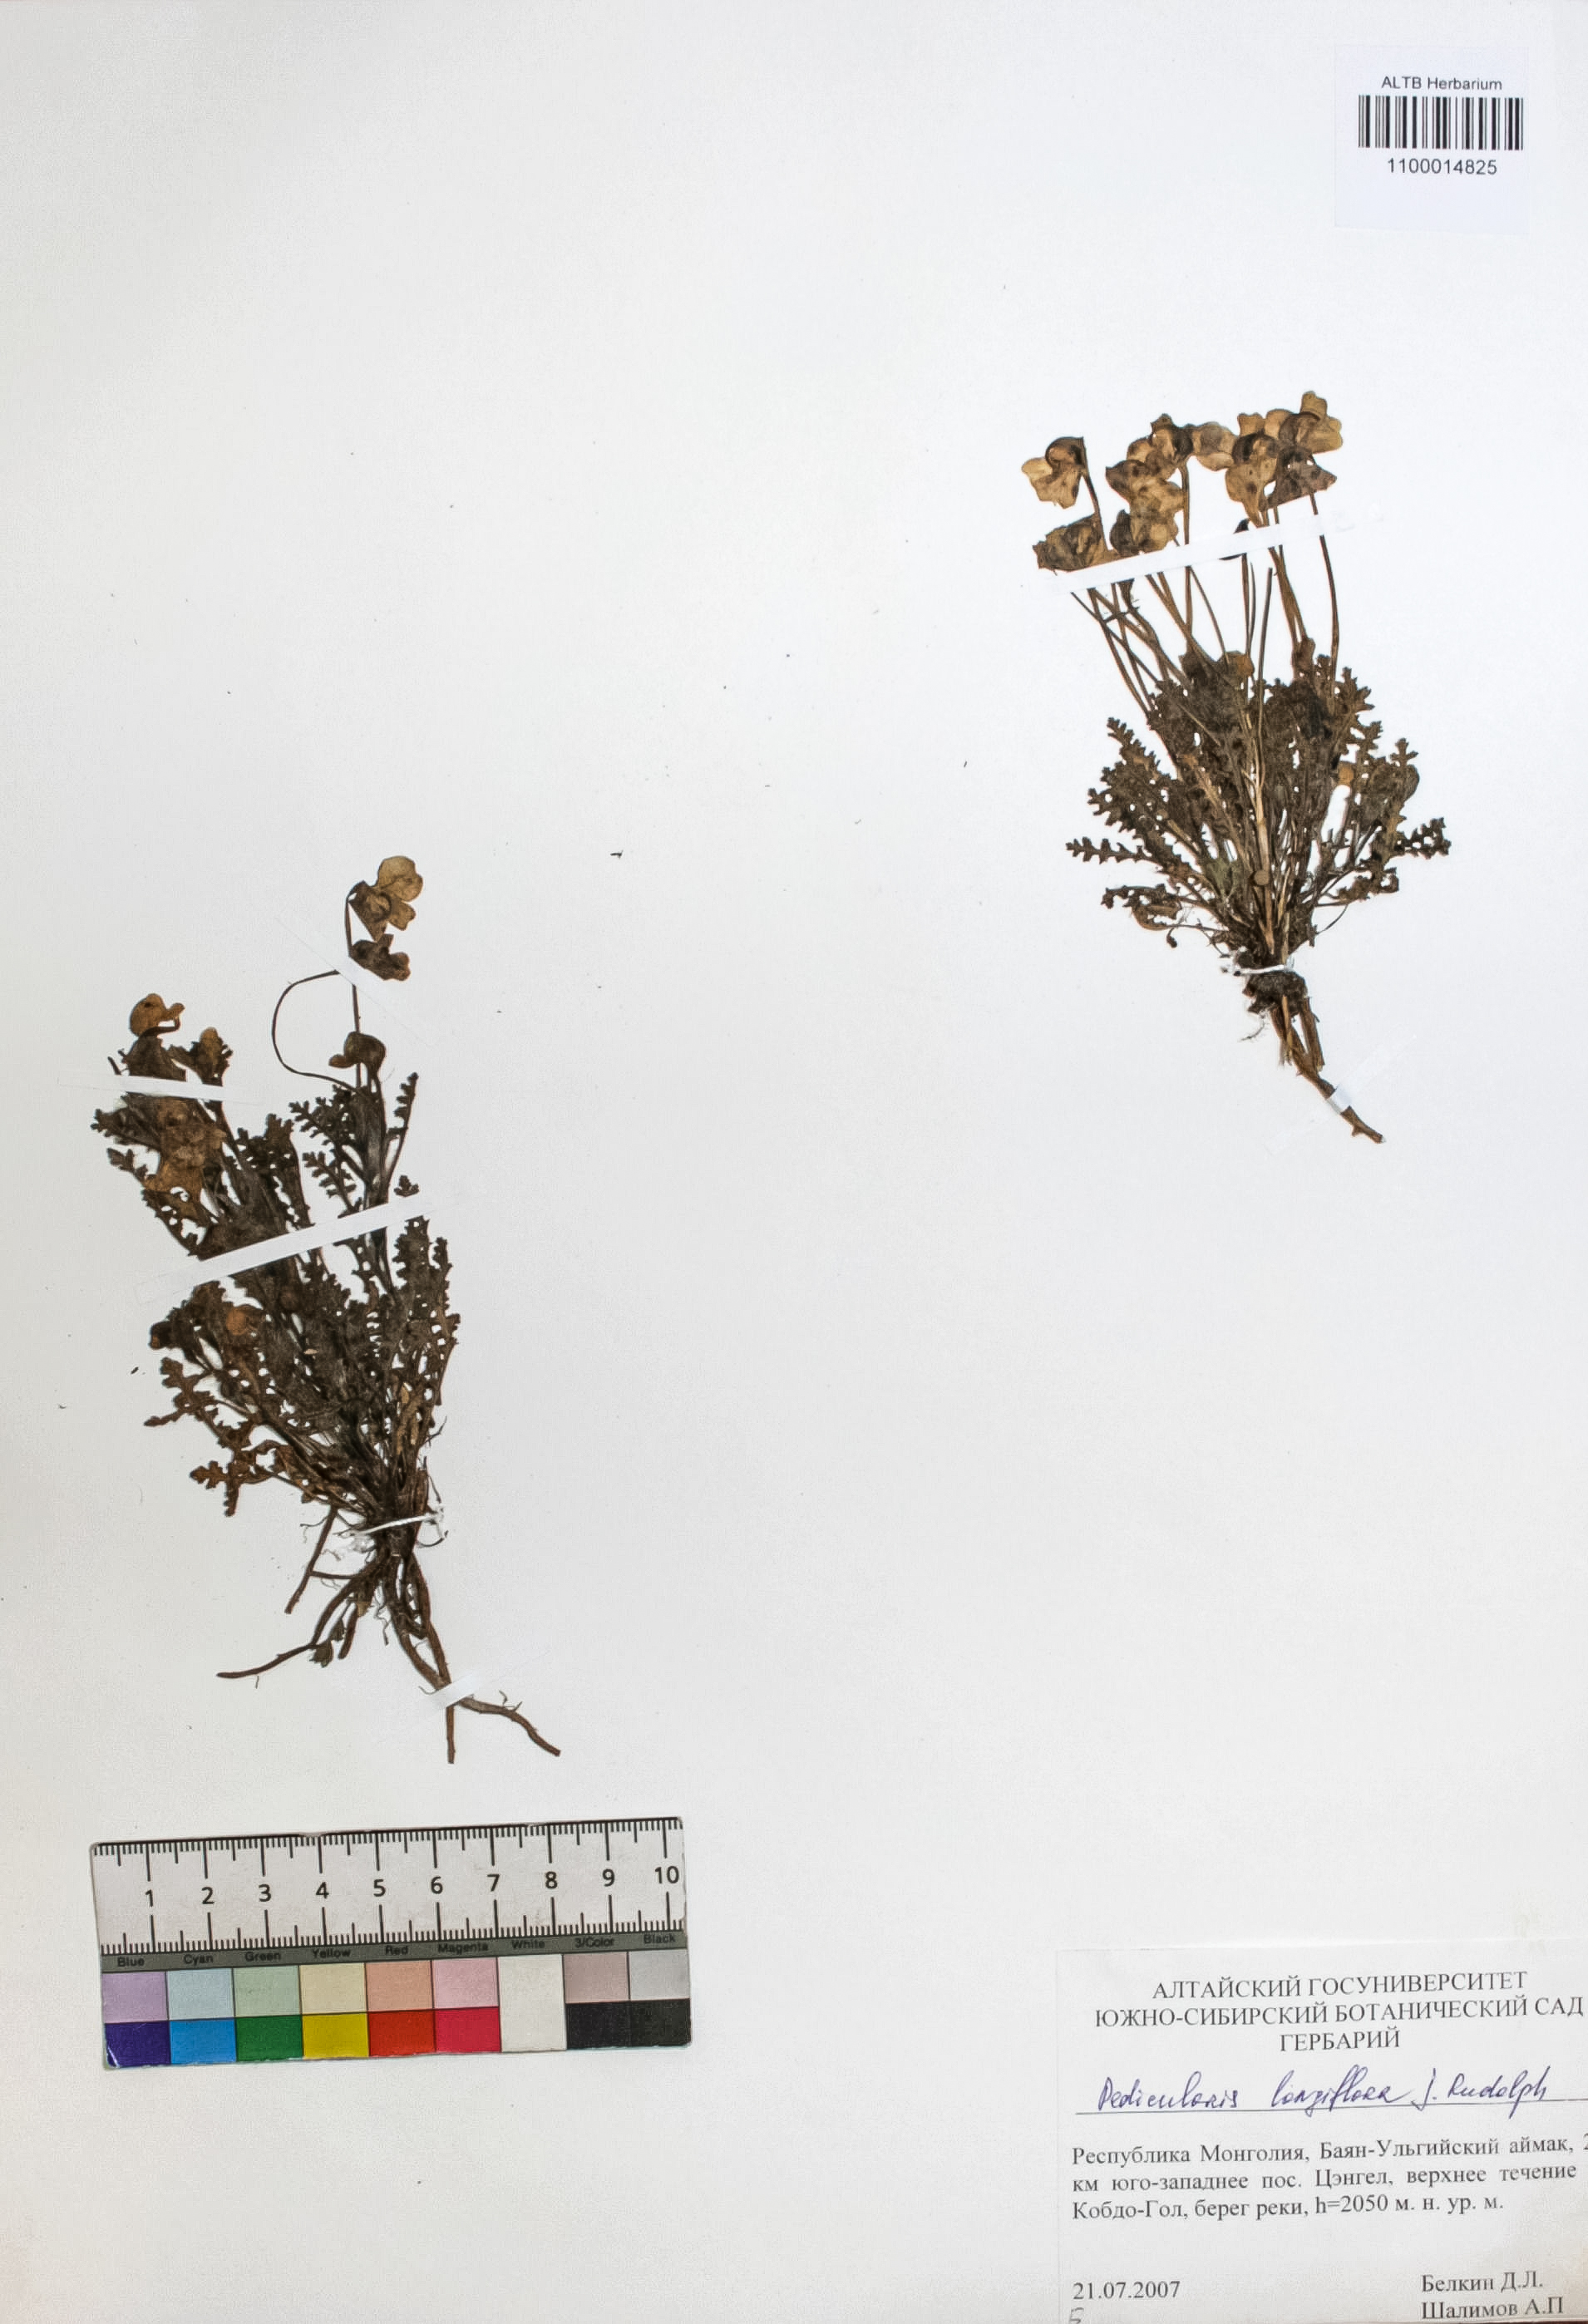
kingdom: Plantae
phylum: Tracheophyta
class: Magnoliopsida
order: Lamiales
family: Orobanchaceae
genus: Pedicularis
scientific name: Pedicularis longiflora
